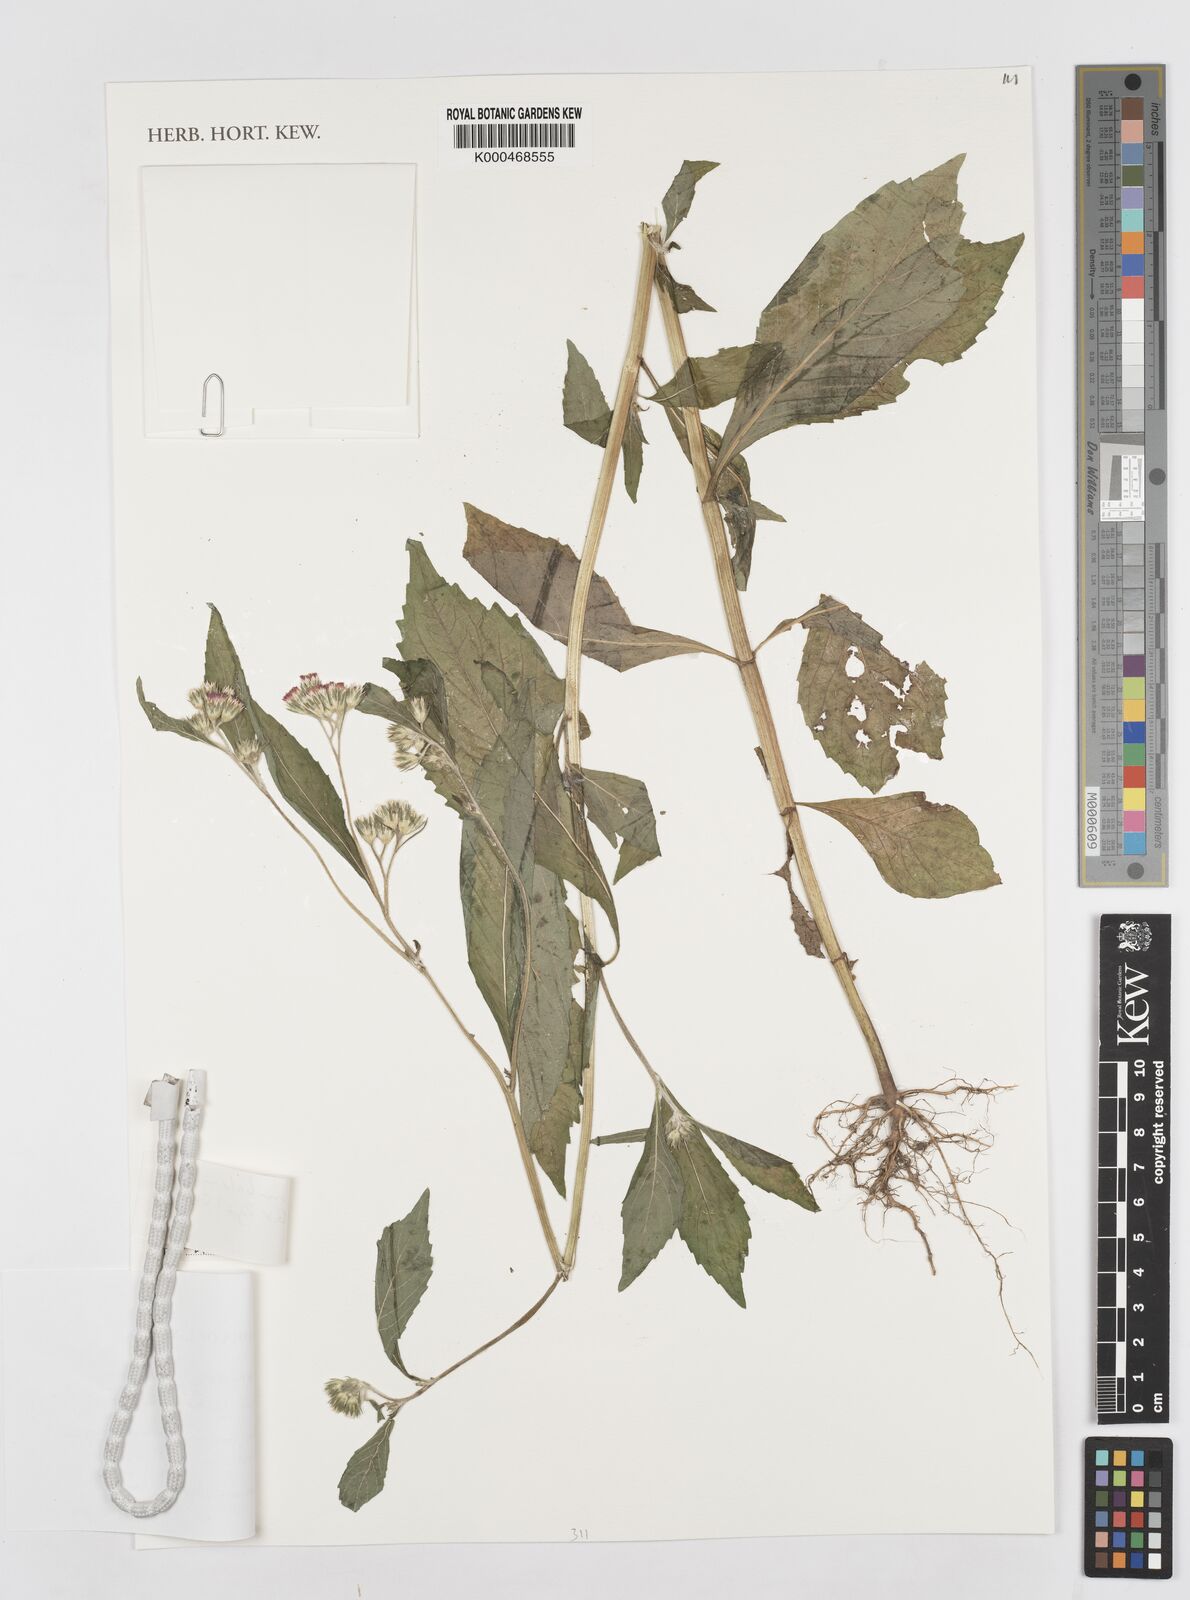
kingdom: Plantae
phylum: Tracheophyta
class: Magnoliopsida
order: Asterales
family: Asteraceae
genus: Bothriocline
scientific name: Bothriocline mbalensis
